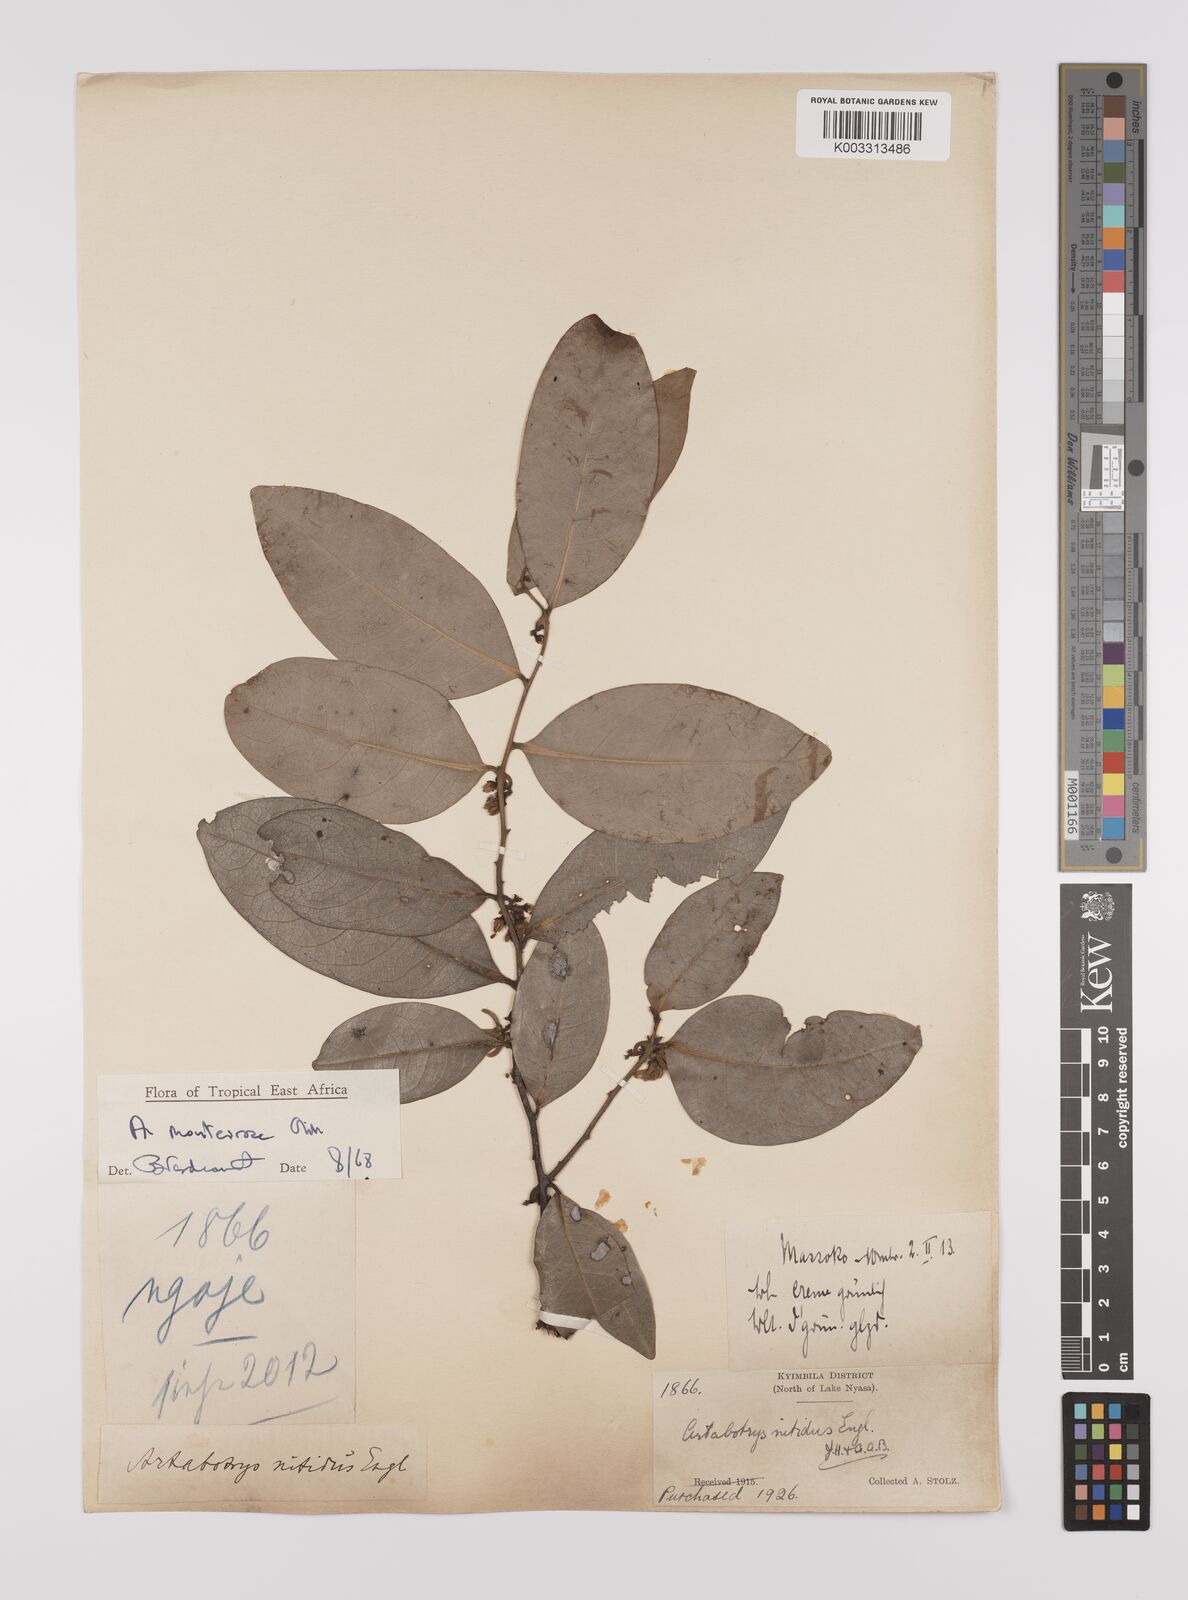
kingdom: Plantae
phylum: Tracheophyta
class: Magnoliopsida
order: Magnoliales
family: Annonaceae
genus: Artabotrys
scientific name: Artabotrys monteiroae
